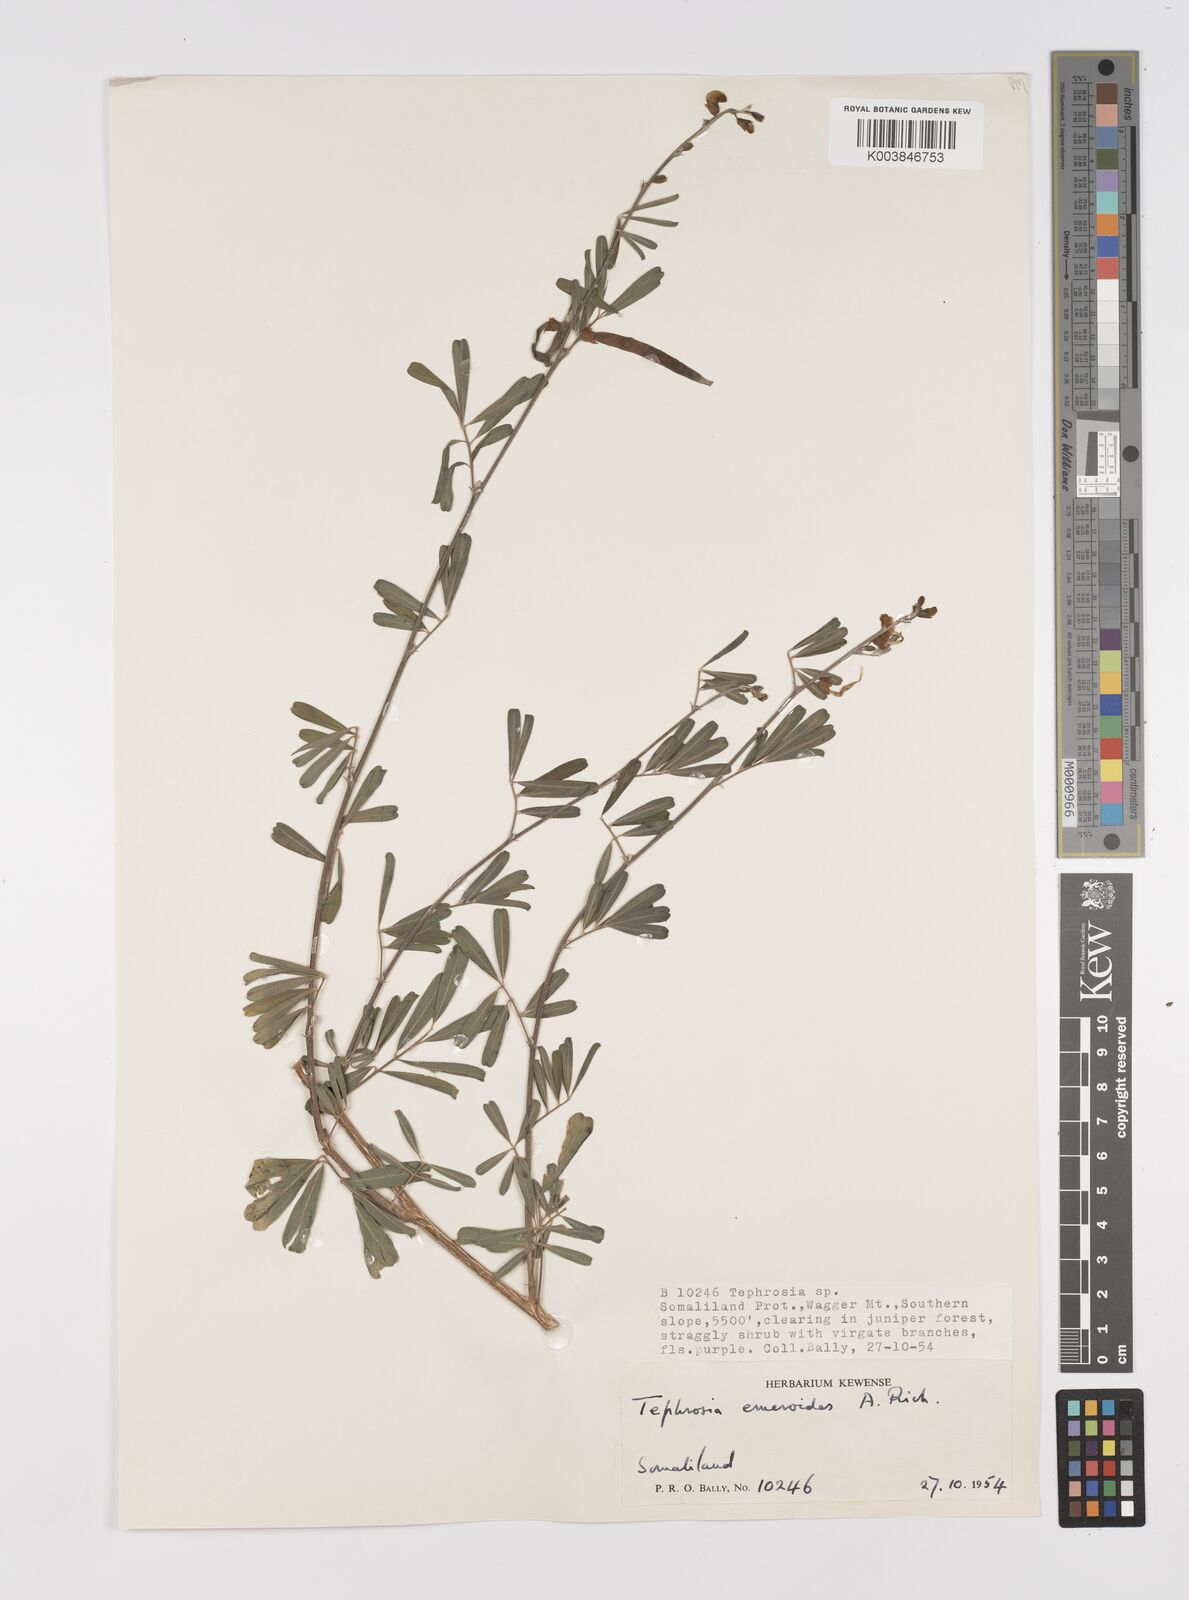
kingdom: Plantae
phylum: Tracheophyta
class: Magnoliopsida
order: Fabales
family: Fabaceae
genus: Tephrosia
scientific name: Tephrosia emeroides
